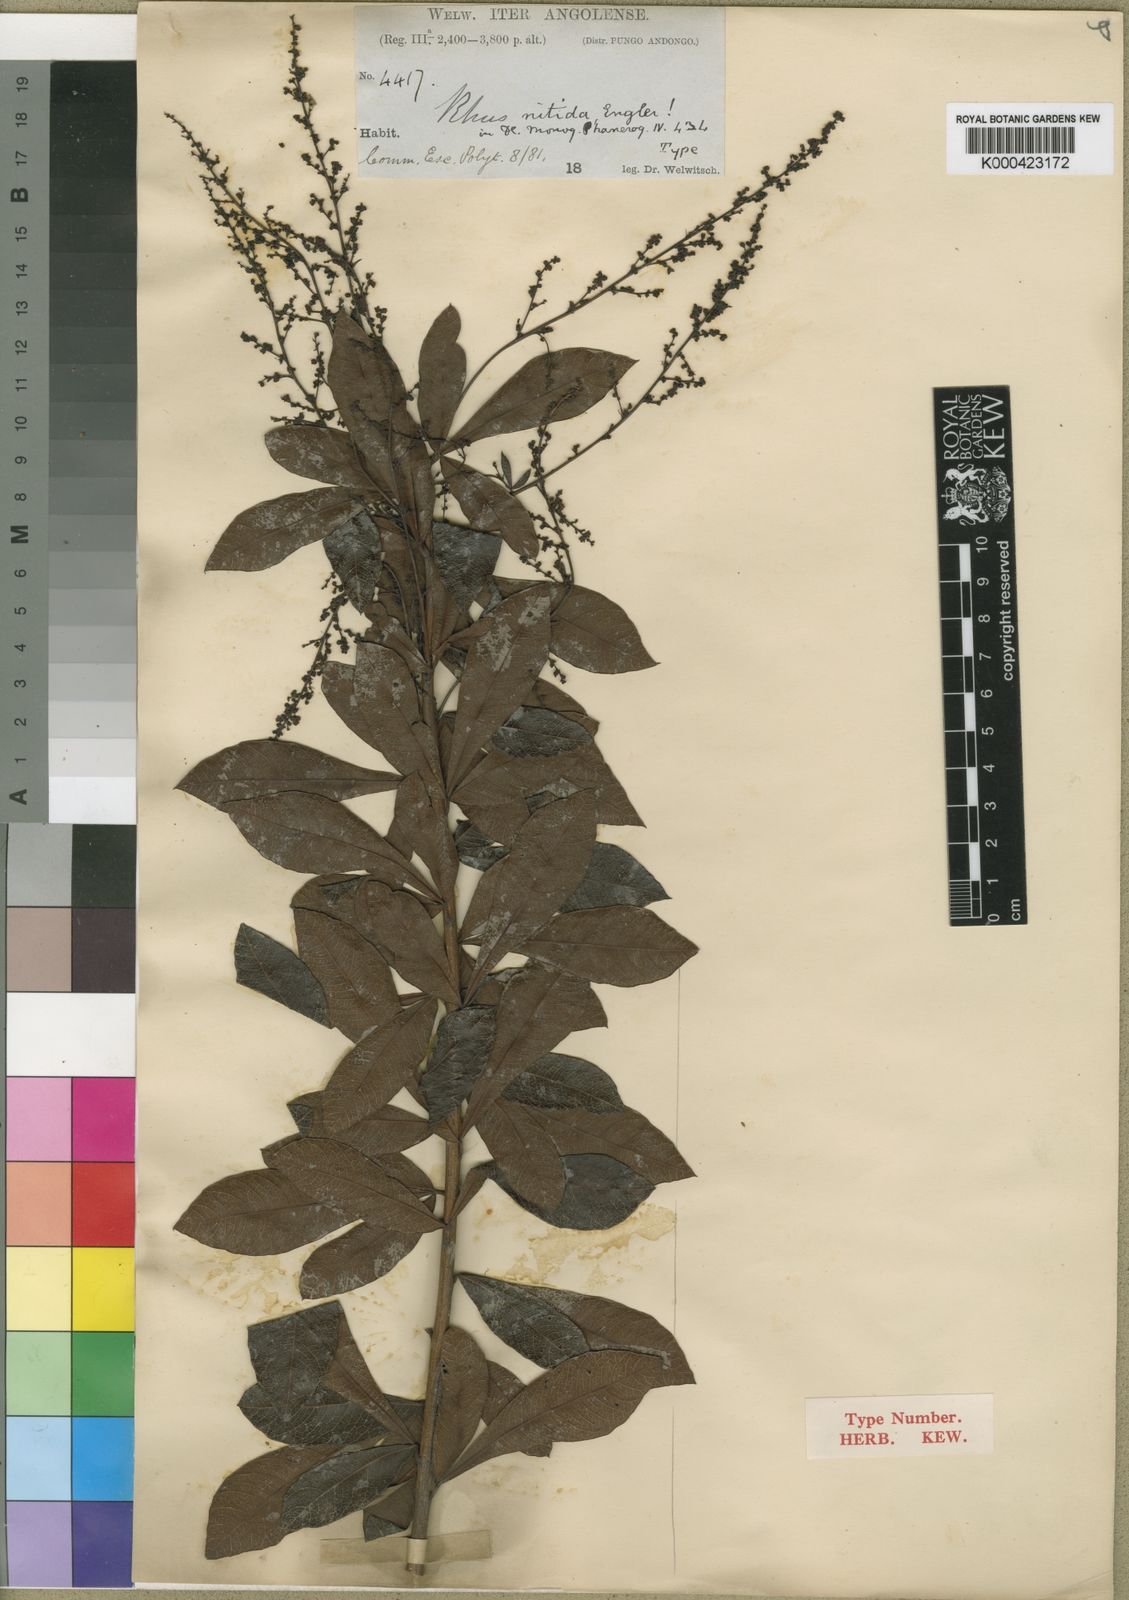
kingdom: Plantae
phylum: Tracheophyta
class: Magnoliopsida
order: Sapindales
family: Anacardiaceae
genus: Searsia
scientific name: Searsia nitida
